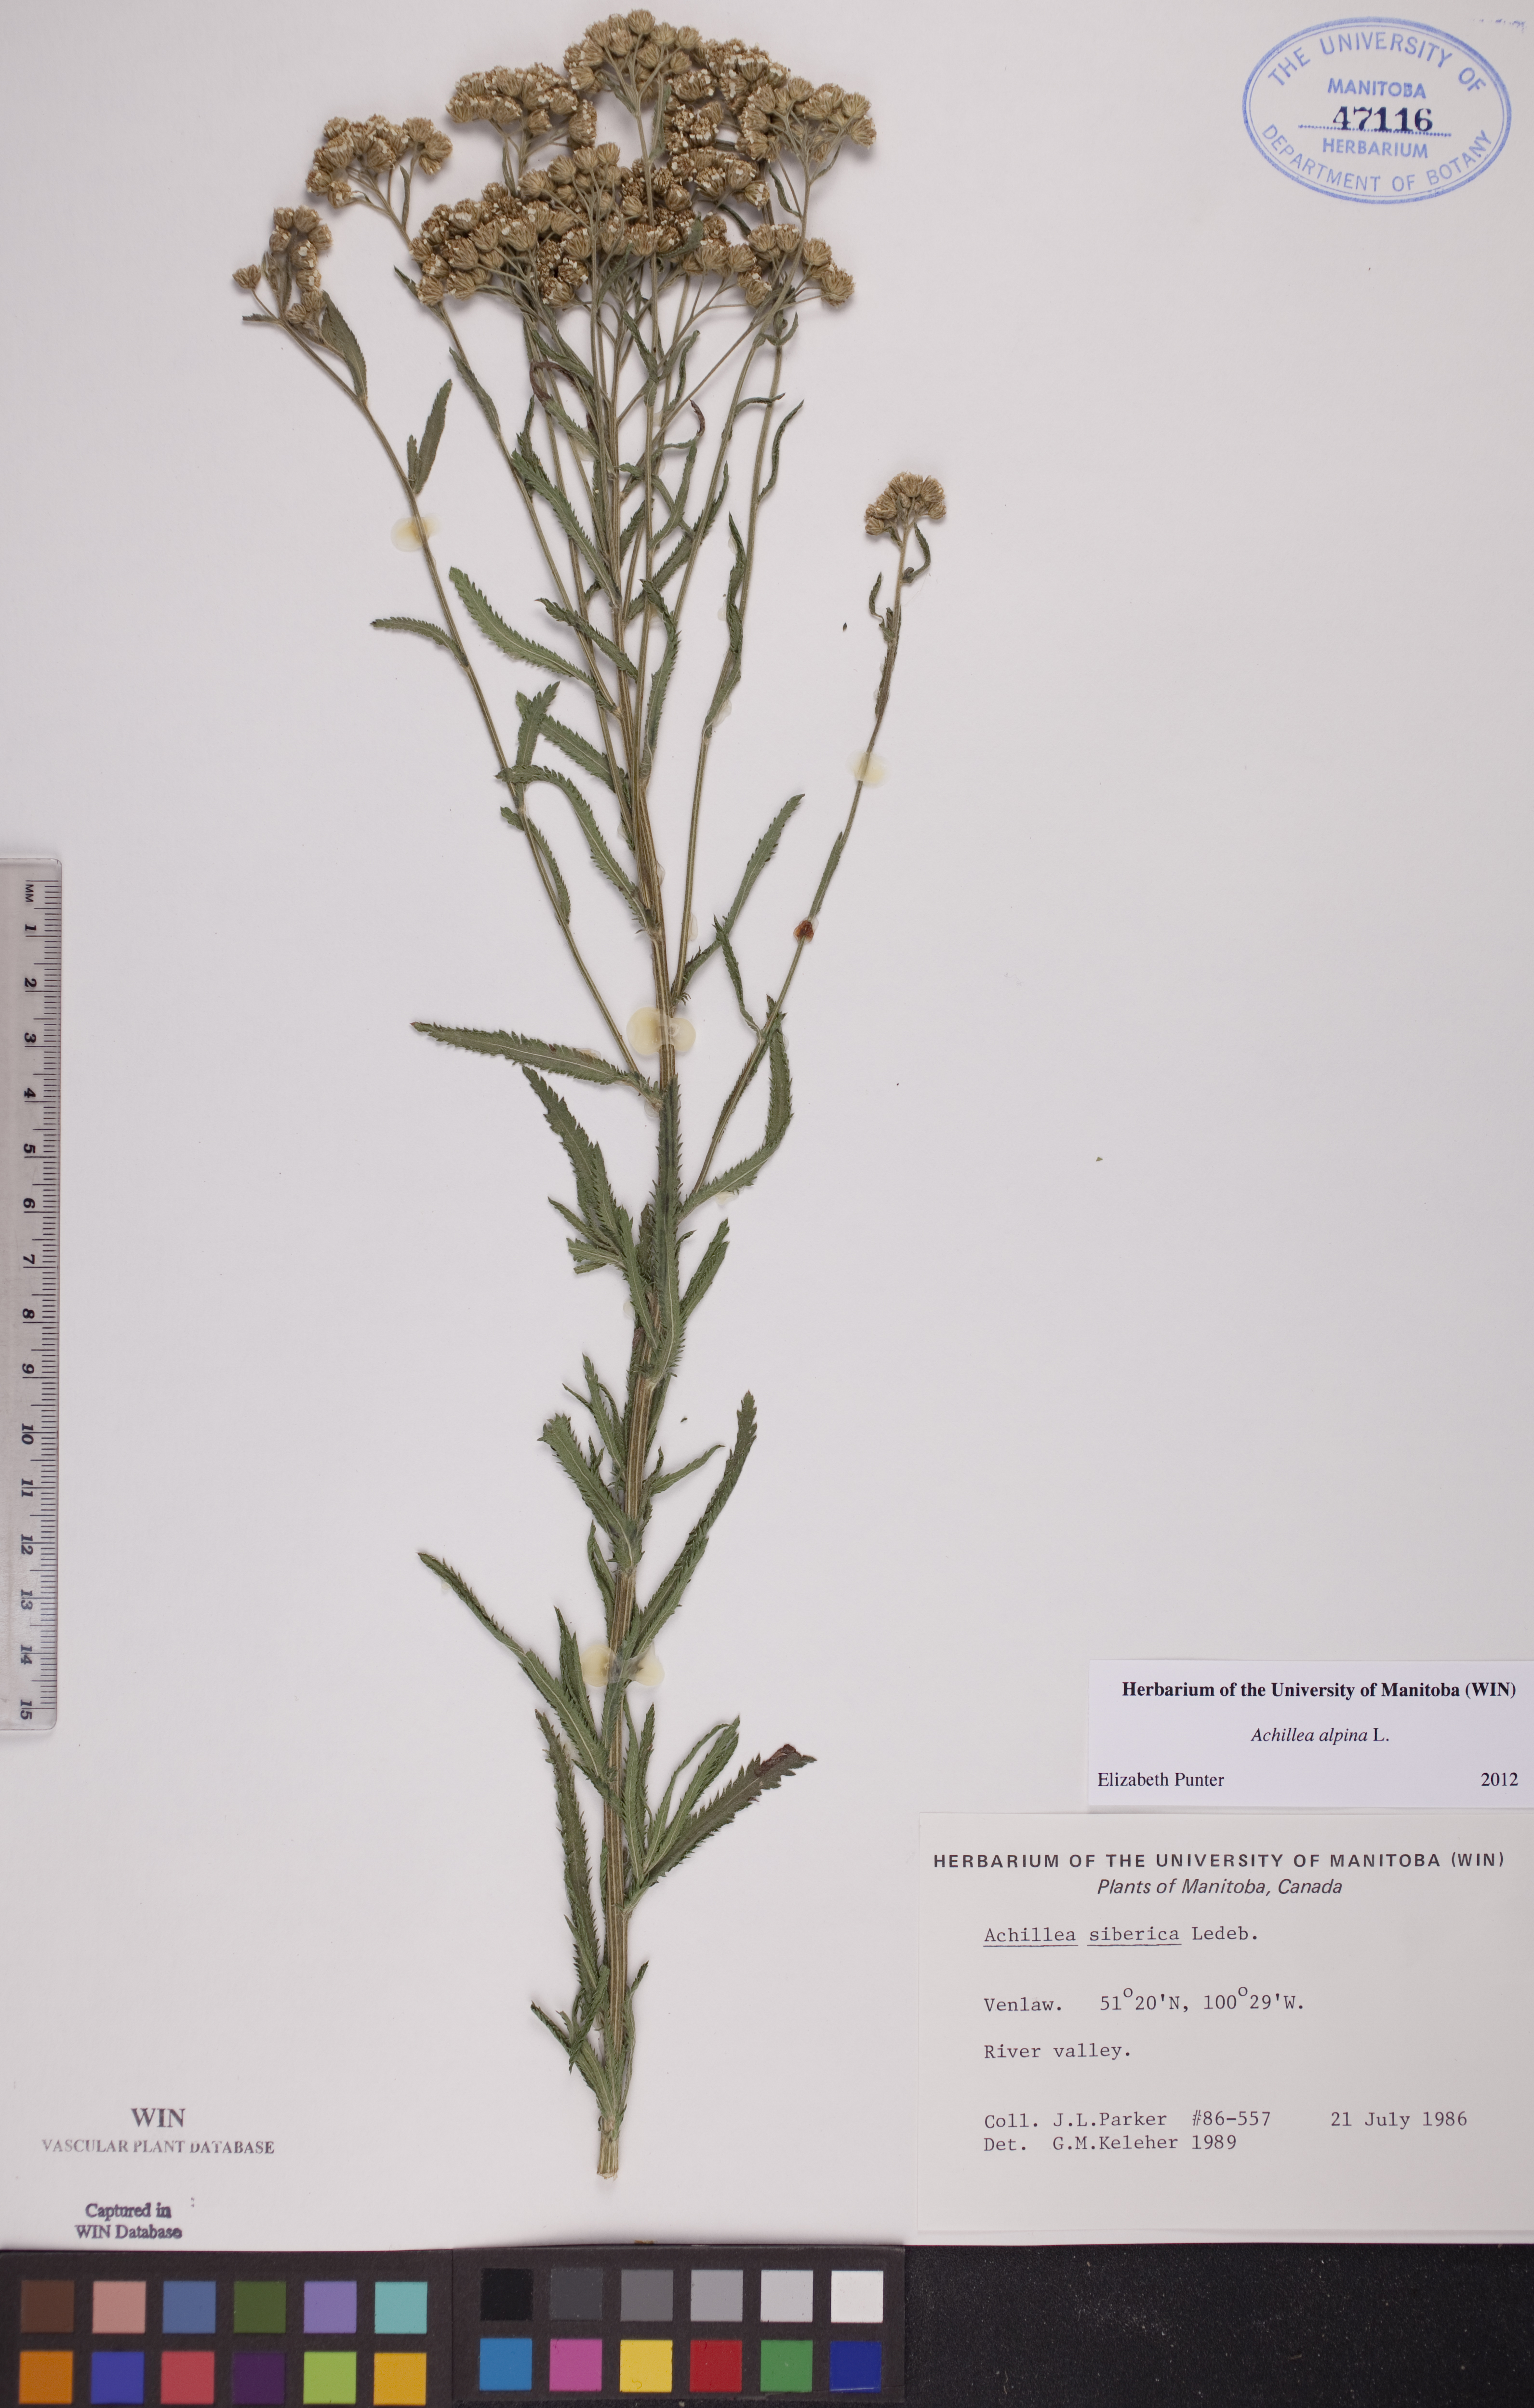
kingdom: Plantae
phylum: Tracheophyta
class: Magnoliopsida
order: Asterales
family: Asteraceae
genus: Achillea
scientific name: Achillea alpina
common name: Siberian yarrow
